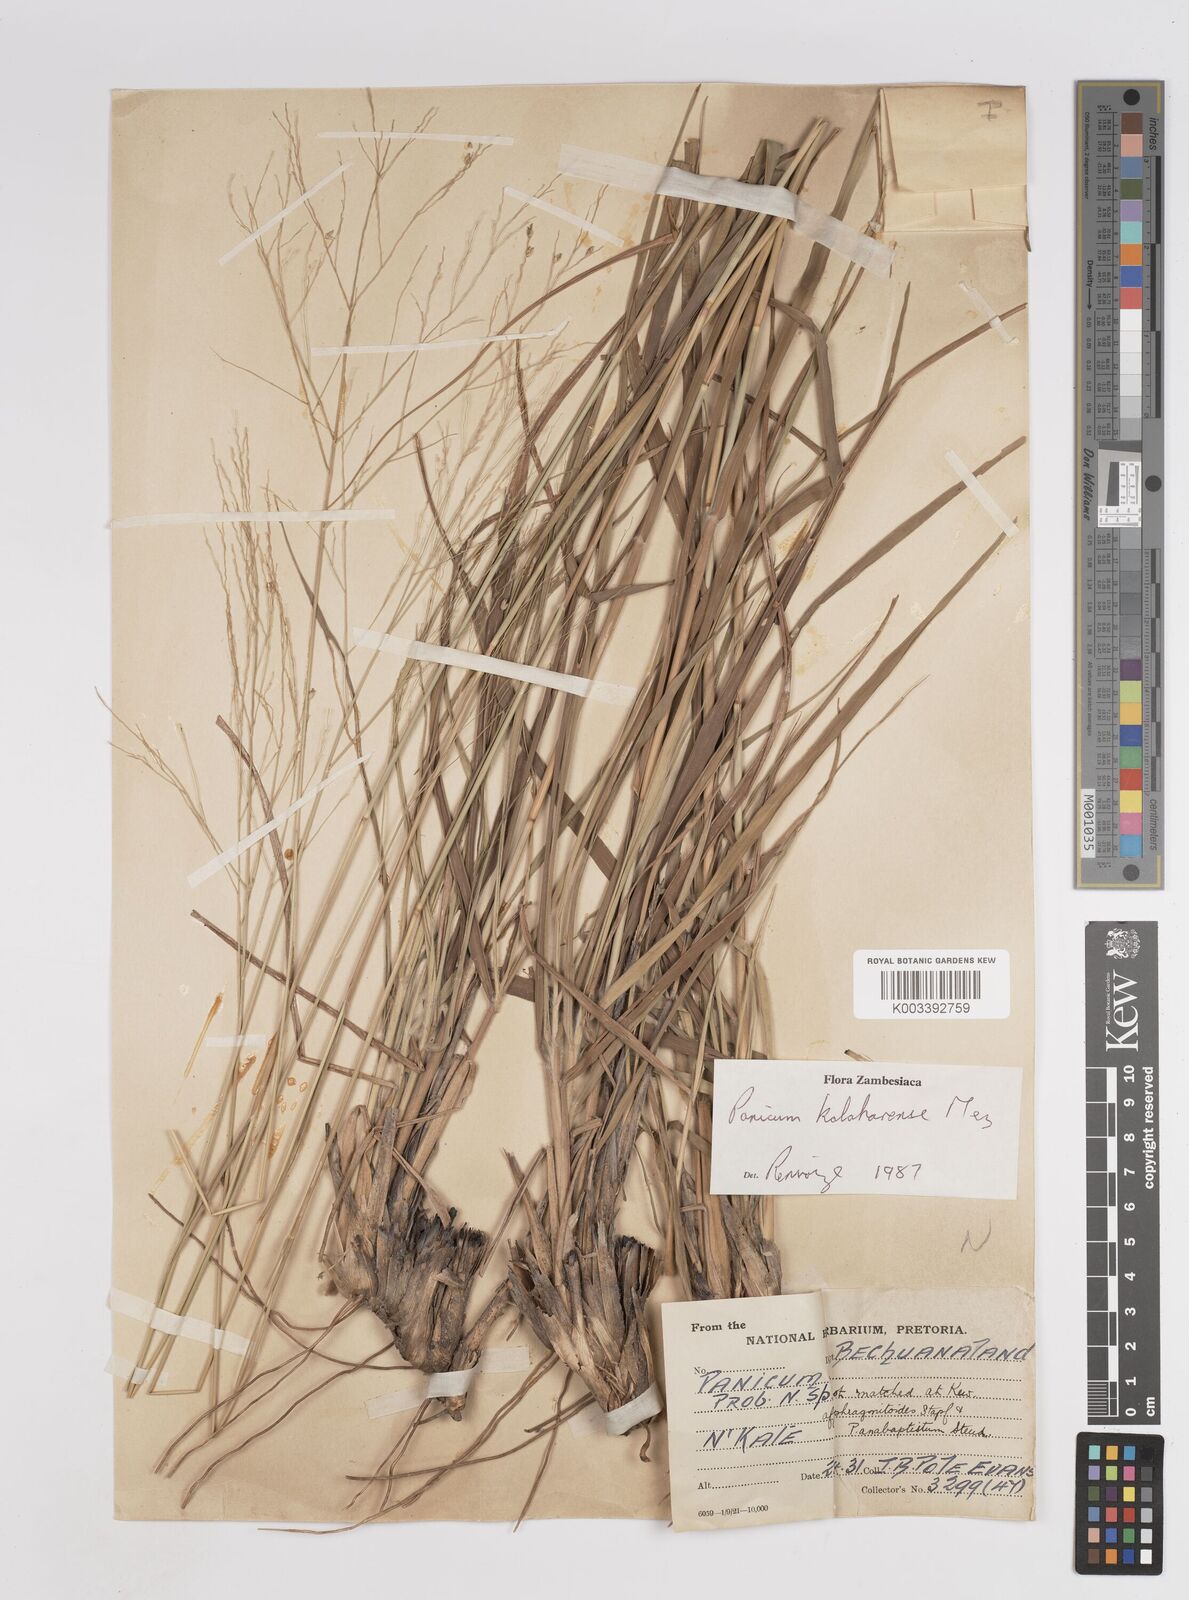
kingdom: Plantae
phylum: Tracheophyta
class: Liliopsida
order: Poales
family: Poaceae
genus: Panicum
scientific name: Panicum kalaharense
